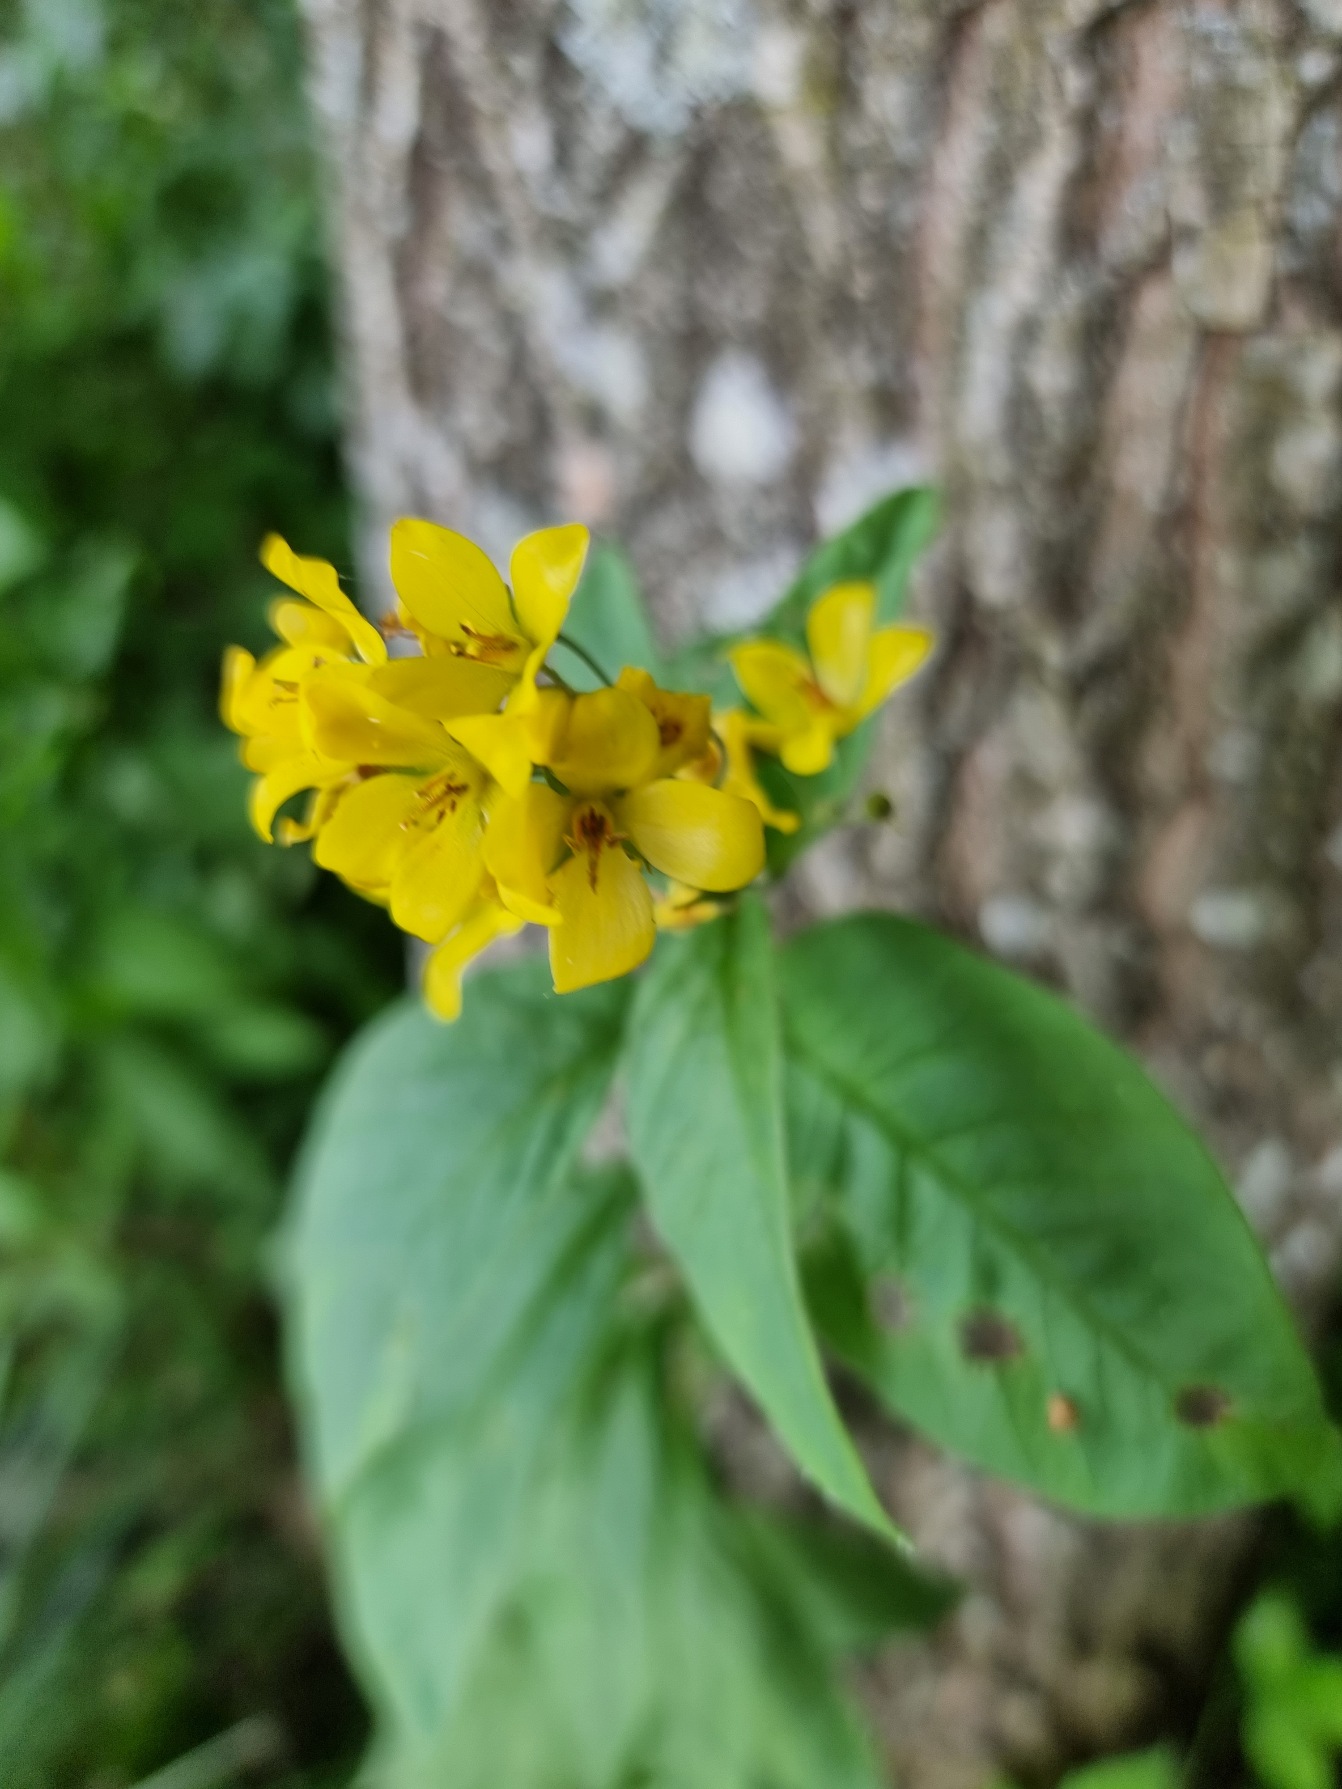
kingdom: Plantae
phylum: Tracheophyta
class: Magnoliopsida
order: Ericales
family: Primulaceae
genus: Lysimachia
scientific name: Lysimachia vulgaris
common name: Almindelig fredløs
